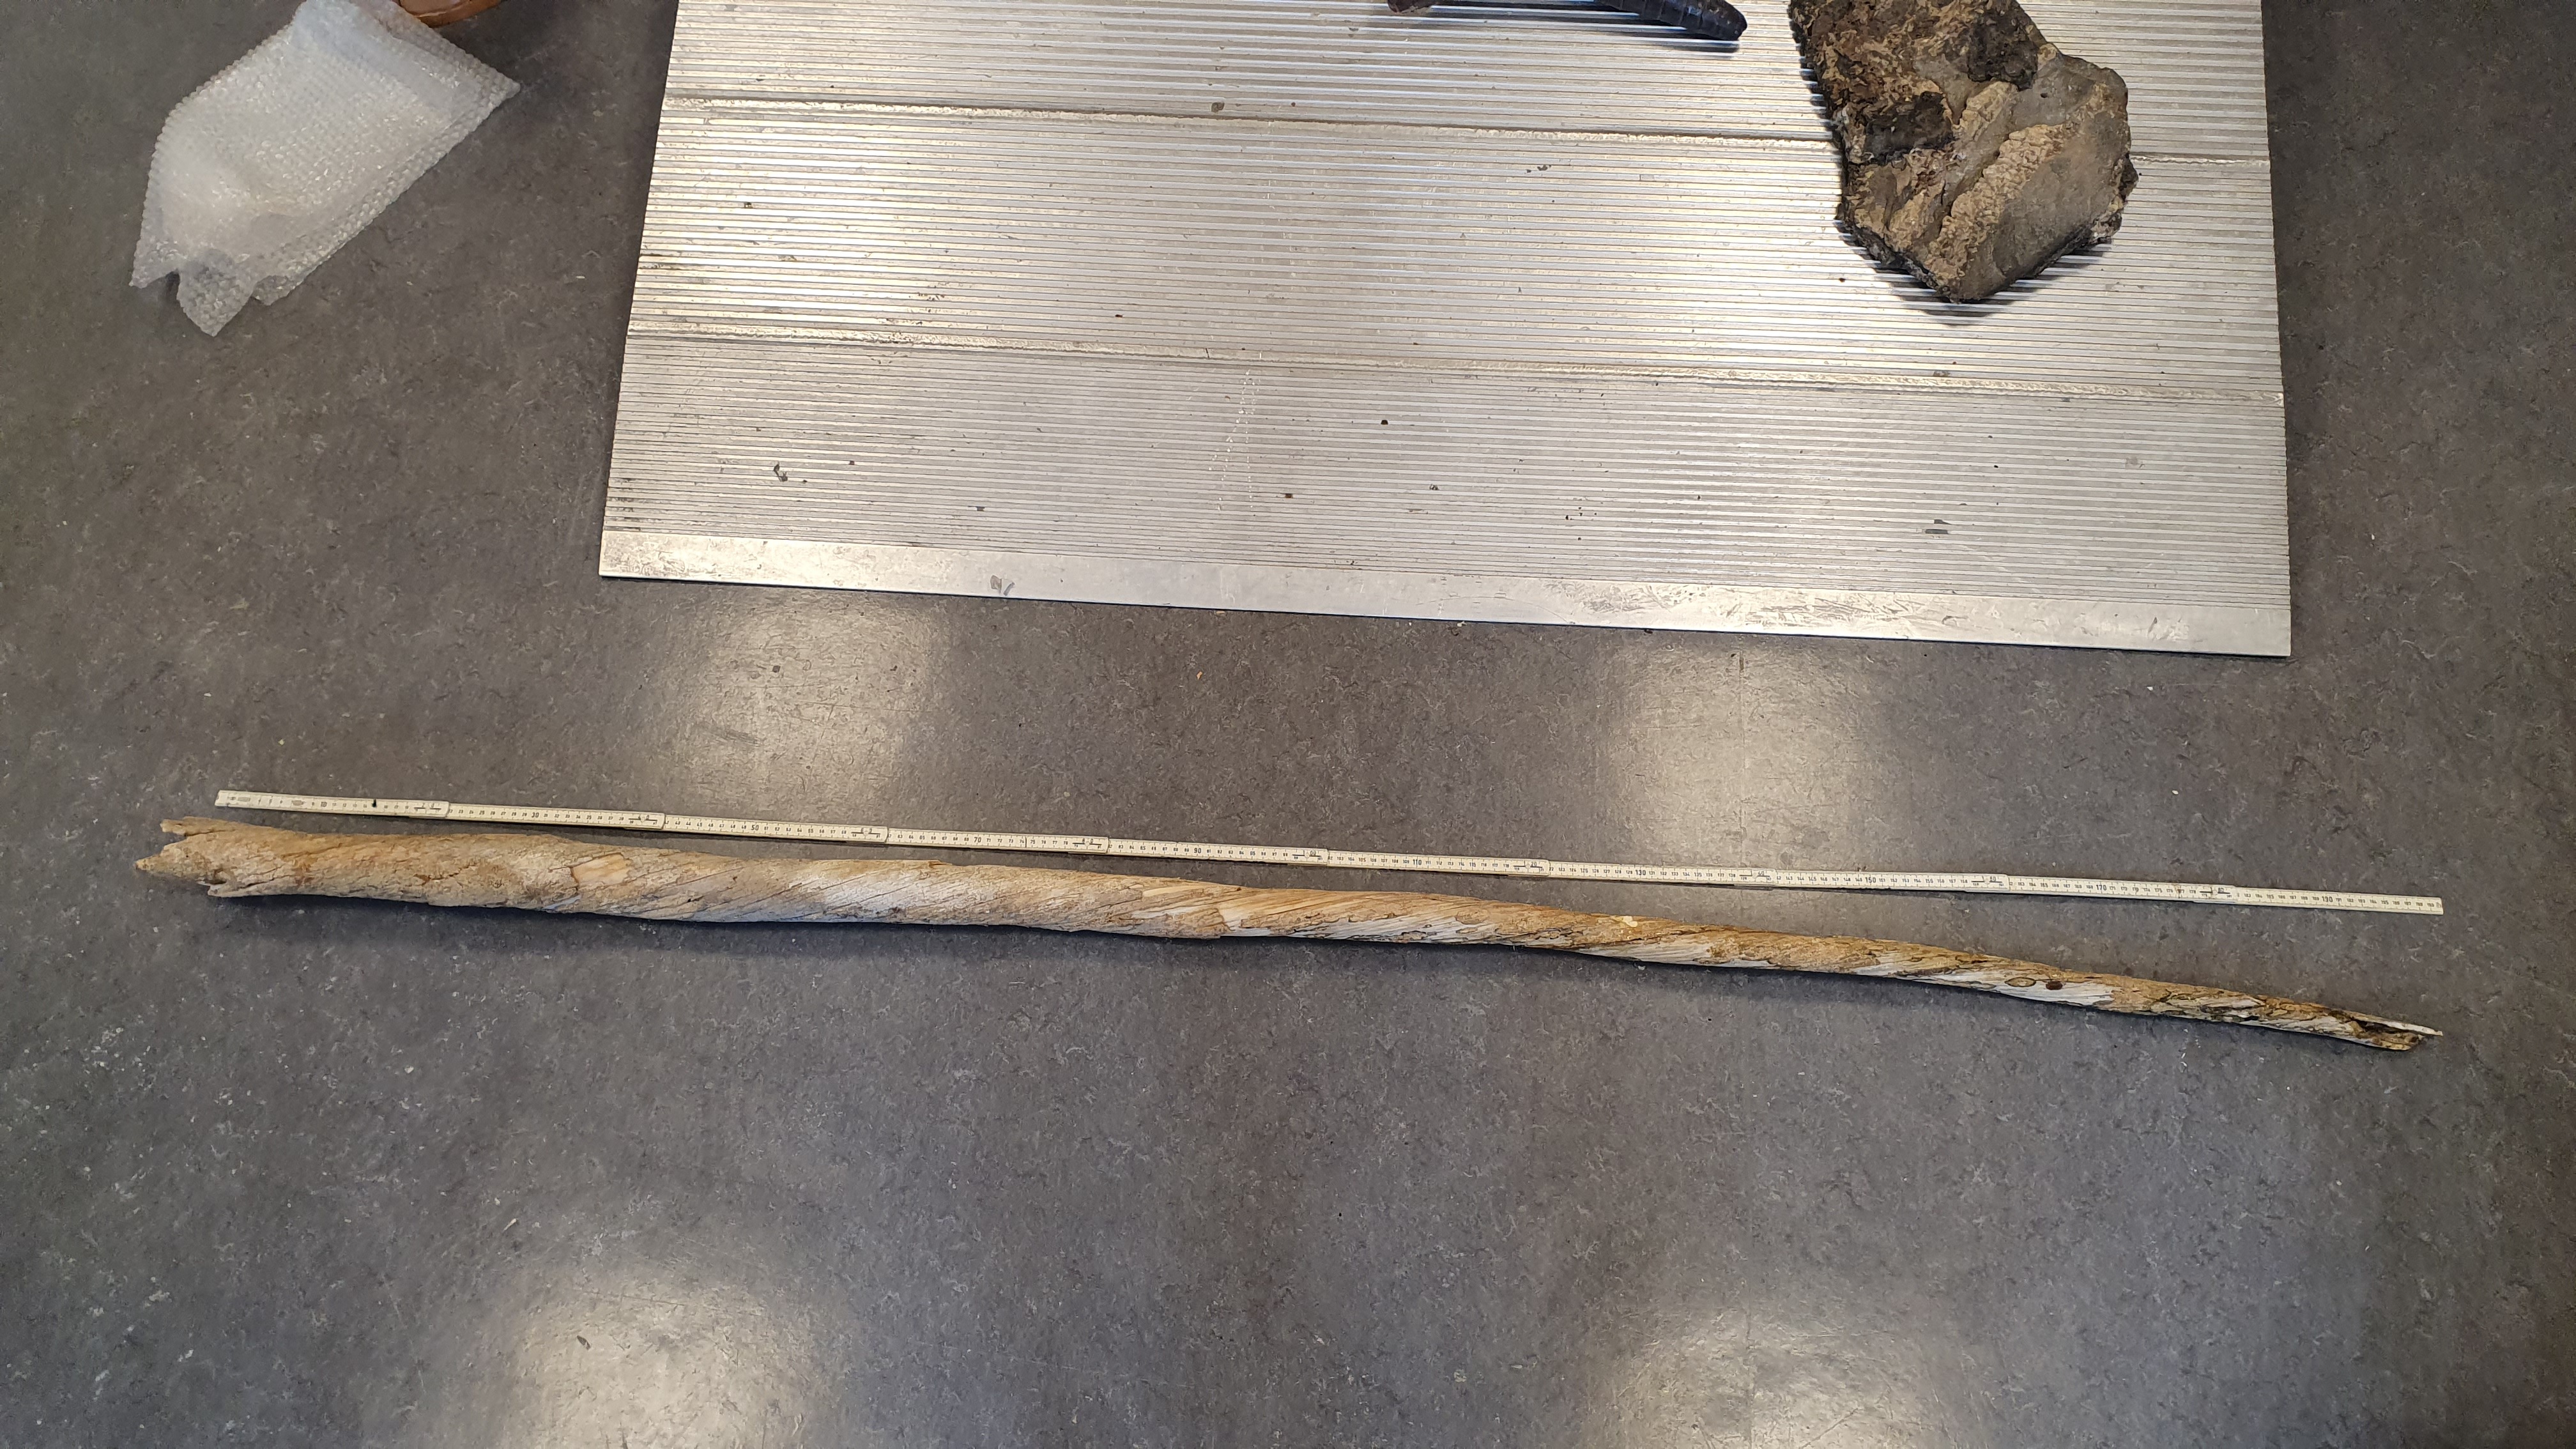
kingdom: Animalia
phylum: Chordata
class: Mammalia
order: Cetacea
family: Monodontidae
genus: Monodon
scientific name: Monodon monoceros
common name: Narwhal
